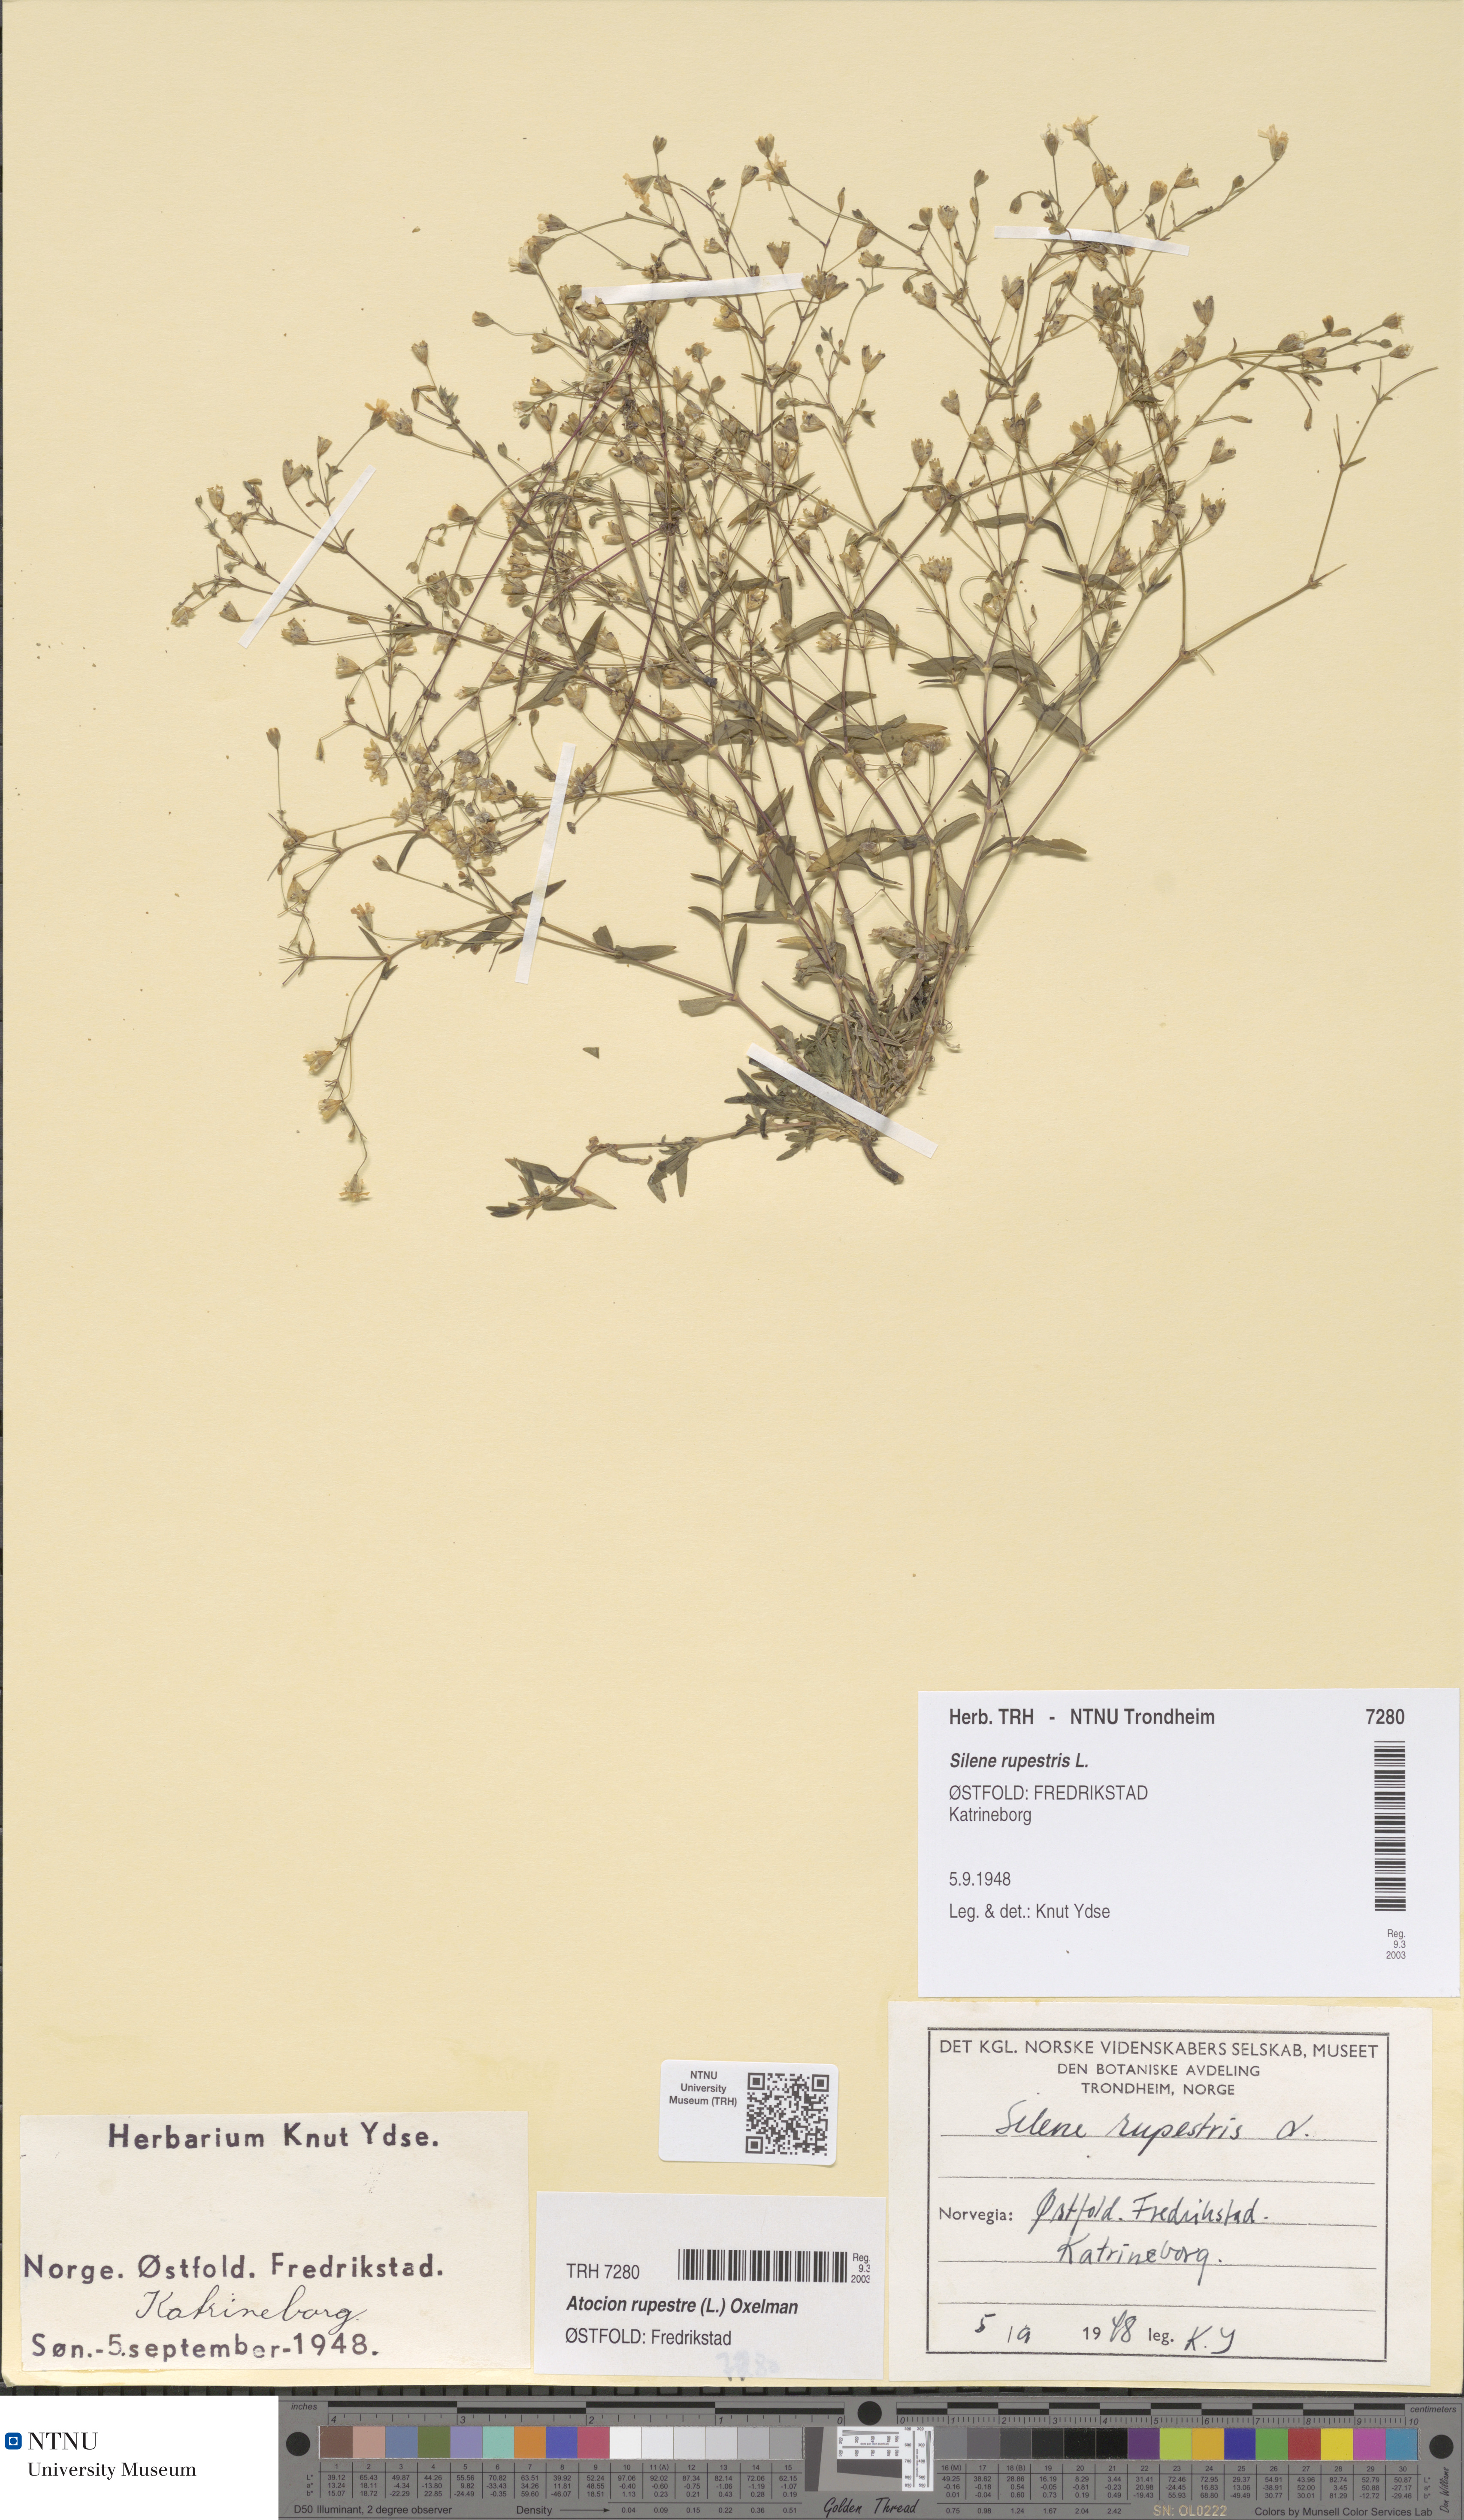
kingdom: Plantae
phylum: Tracheophyta
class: Magnoliopsida
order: Caryophyllales
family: Caryophyllaceae
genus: Atocion
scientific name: Atocion rupestre
